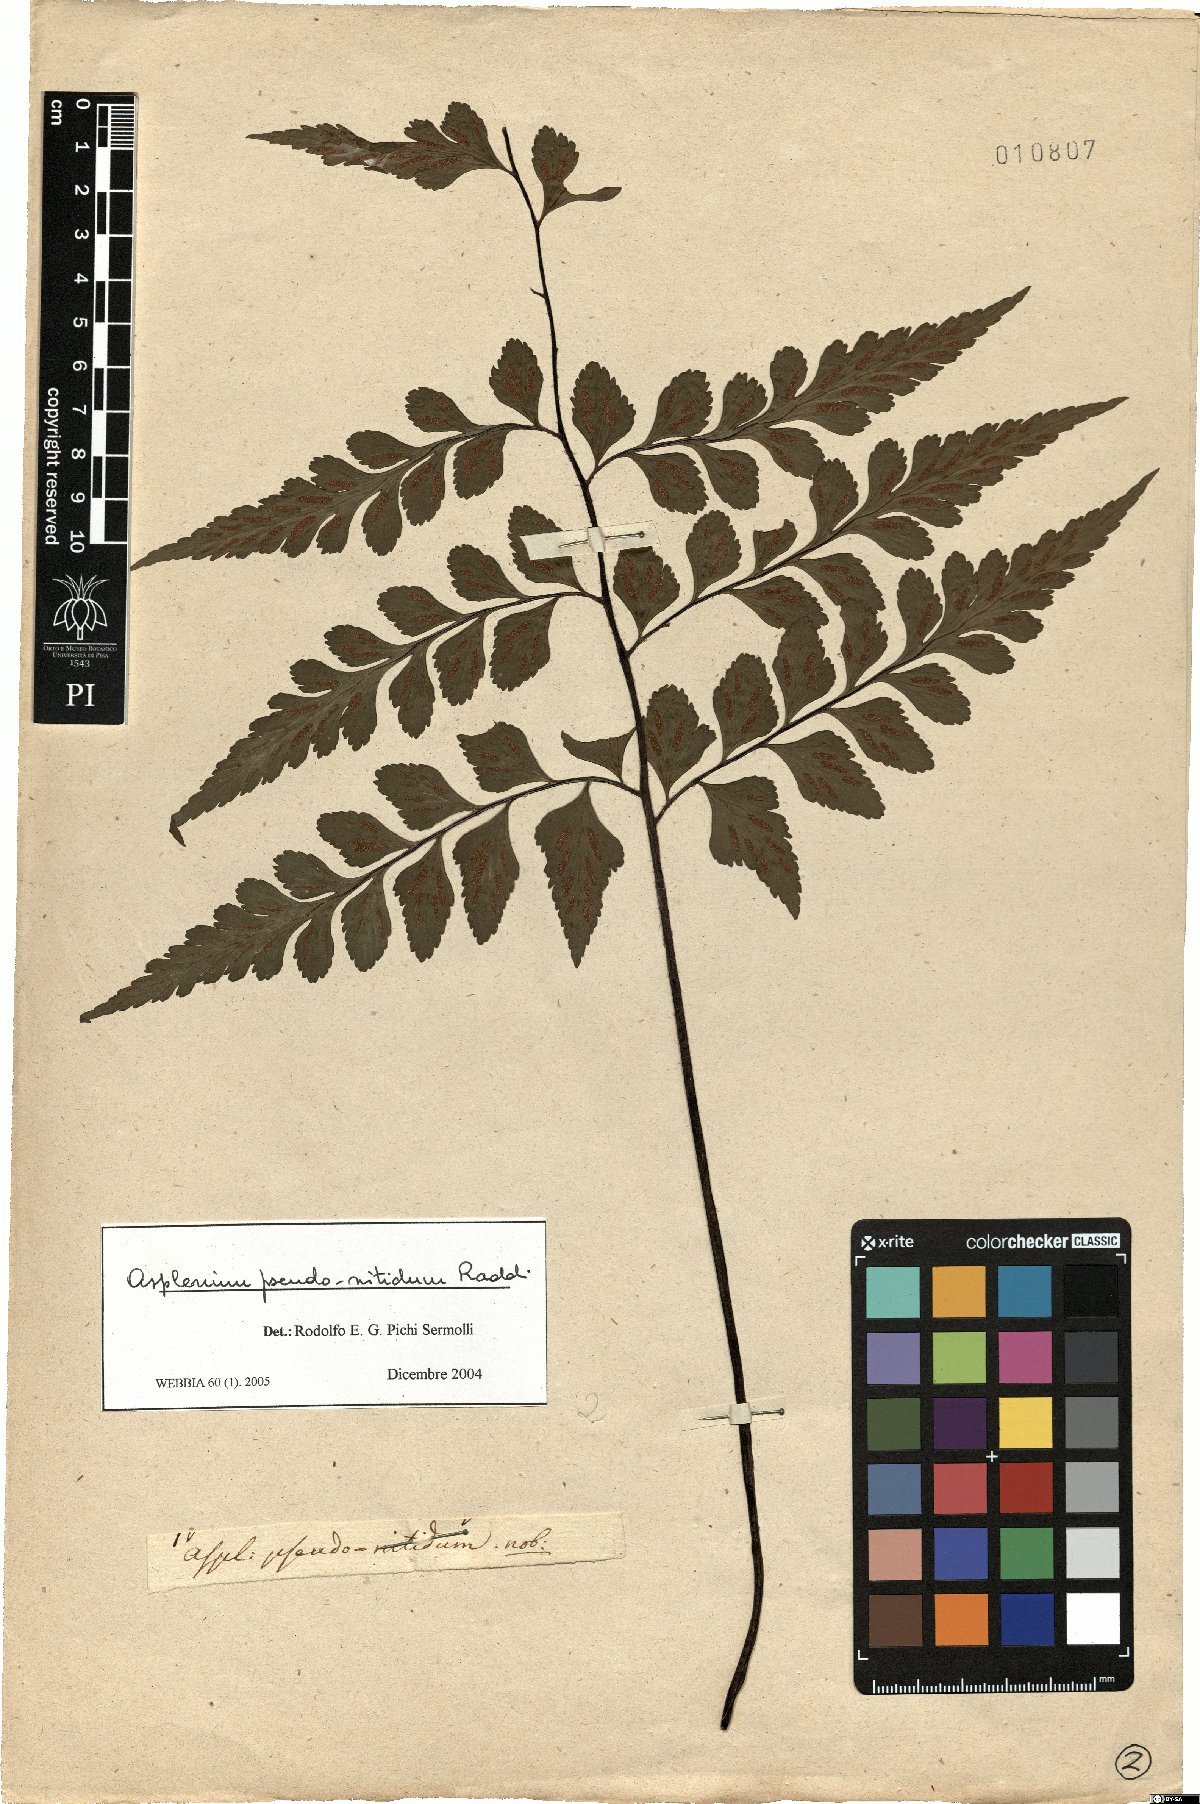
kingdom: Plantae
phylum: Tracheophyta
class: Polypodiopsida
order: Polypodiales
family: Aspleniaceae
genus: Asplenium
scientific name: Asplenium pseudonitidum
